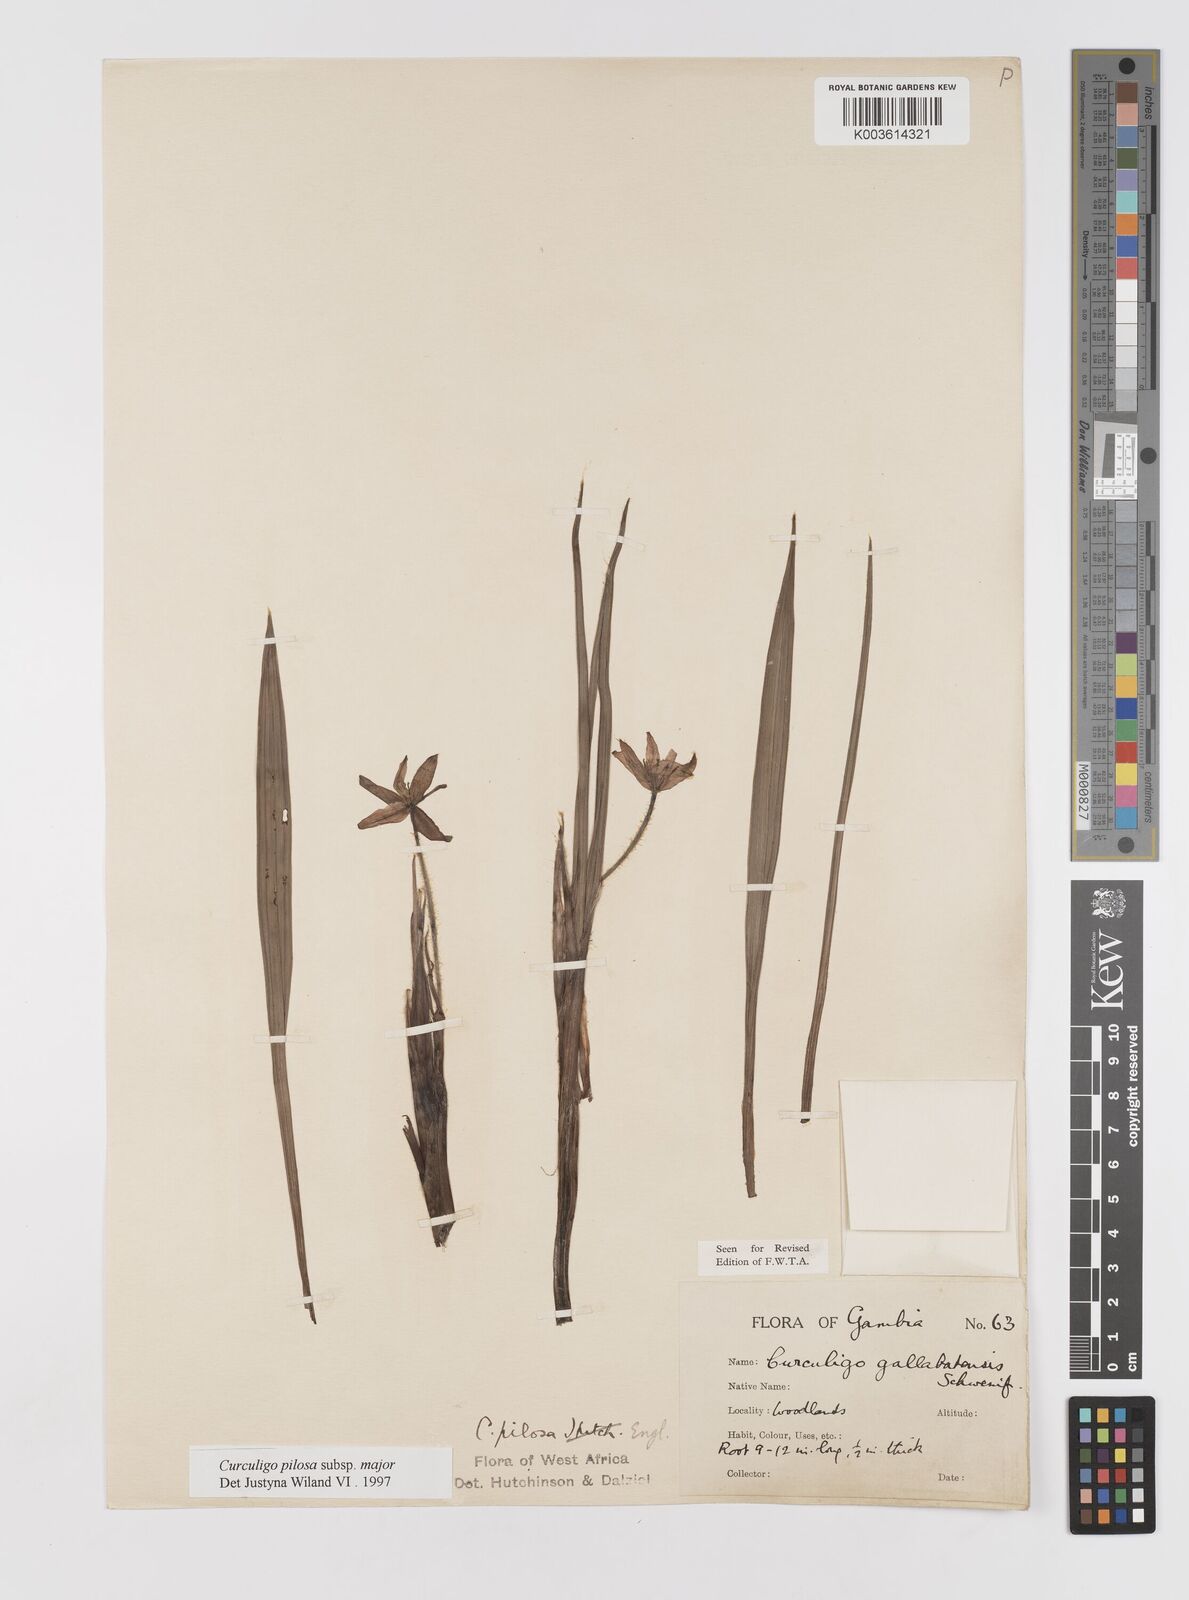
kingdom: Plantae
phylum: Tracheophyta
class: Liliopsida
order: Asparagales
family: Hypoxidaceae
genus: Curculigo
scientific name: Curculigo pilosa
